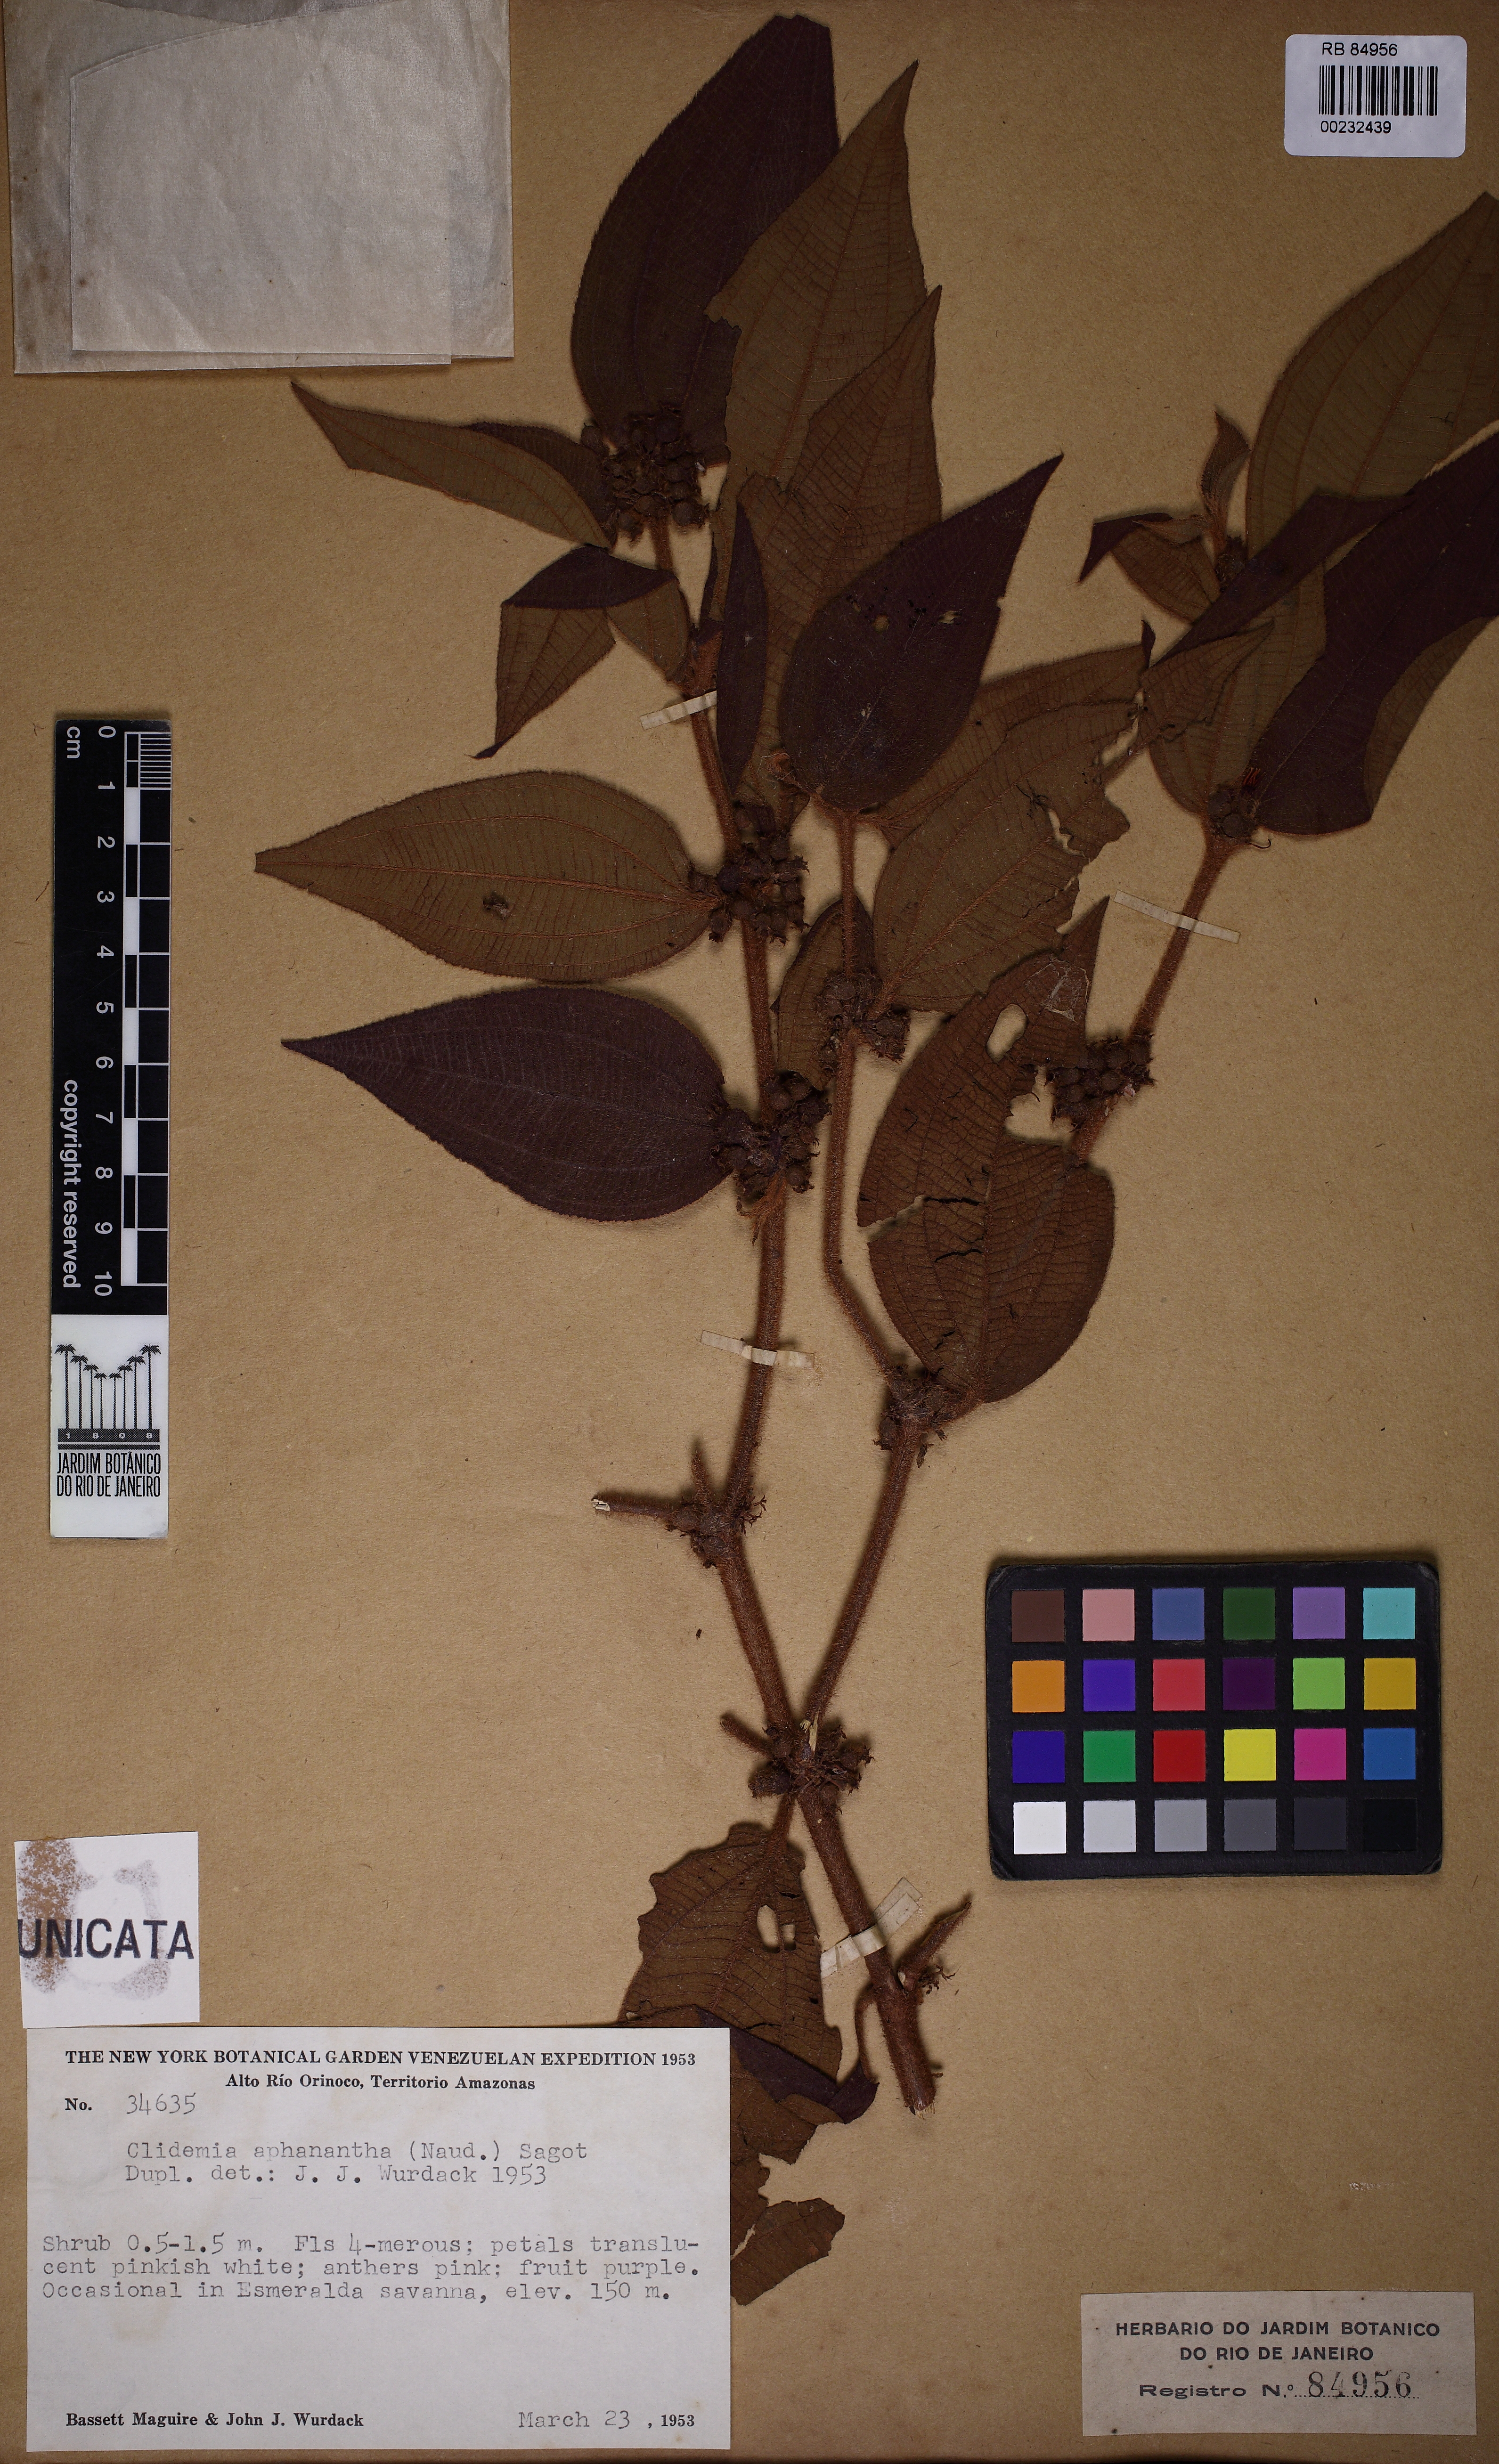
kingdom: Plantae
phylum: Tracheophyta
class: Magnoliopsida
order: Myrtales
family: Melastomataceae
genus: Miconia
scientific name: Miconia aphanantha
